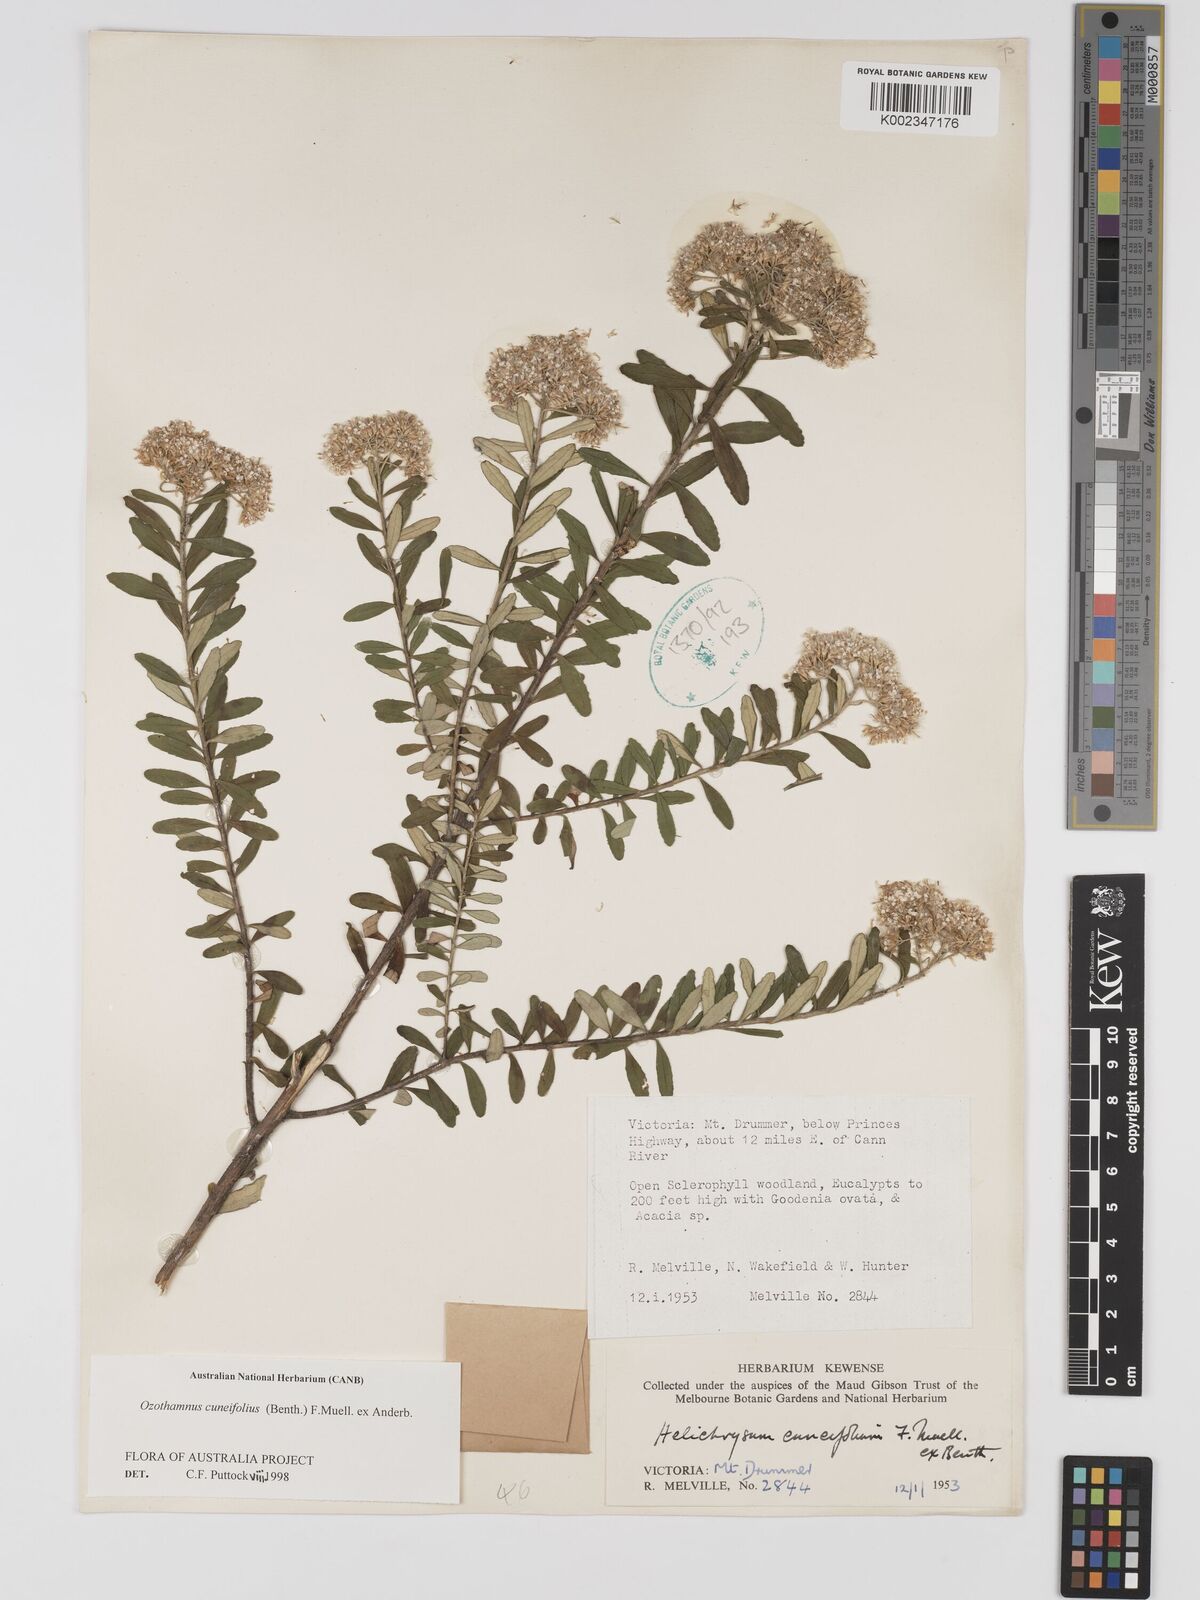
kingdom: Plantae
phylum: Tracheophyta
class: Magnoliopsida
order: Asterales
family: Asteraceae
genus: Ozothamnus
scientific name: Ozothamnus cuneifolius
